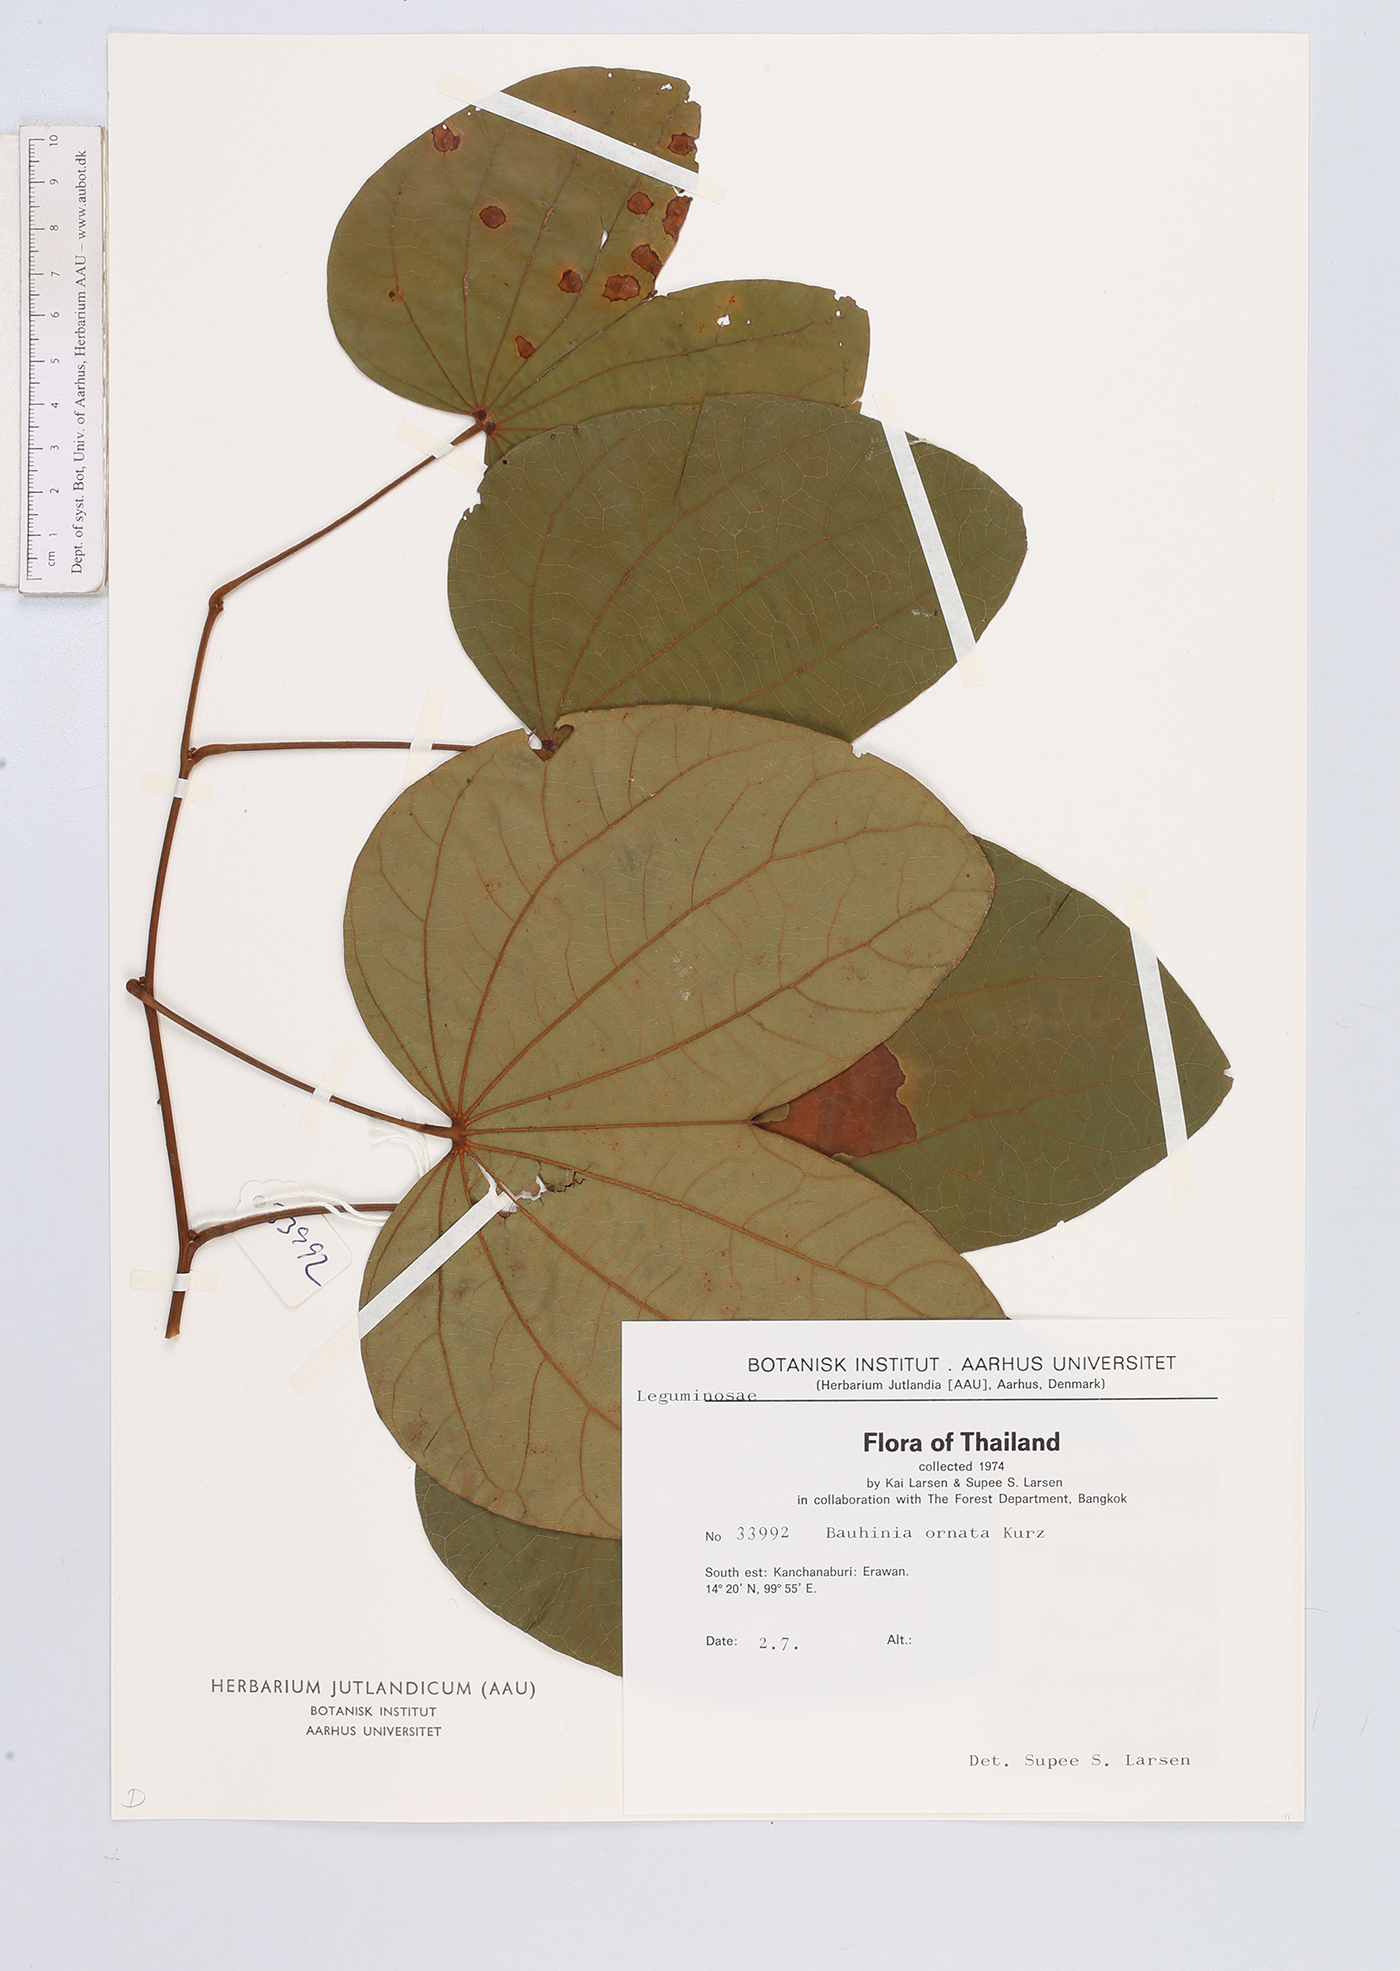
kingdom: Plantae
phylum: Tracheophyta
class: Magnoliopsida
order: Fabales
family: Fabaceae
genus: Phanera
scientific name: Phanera ornata
